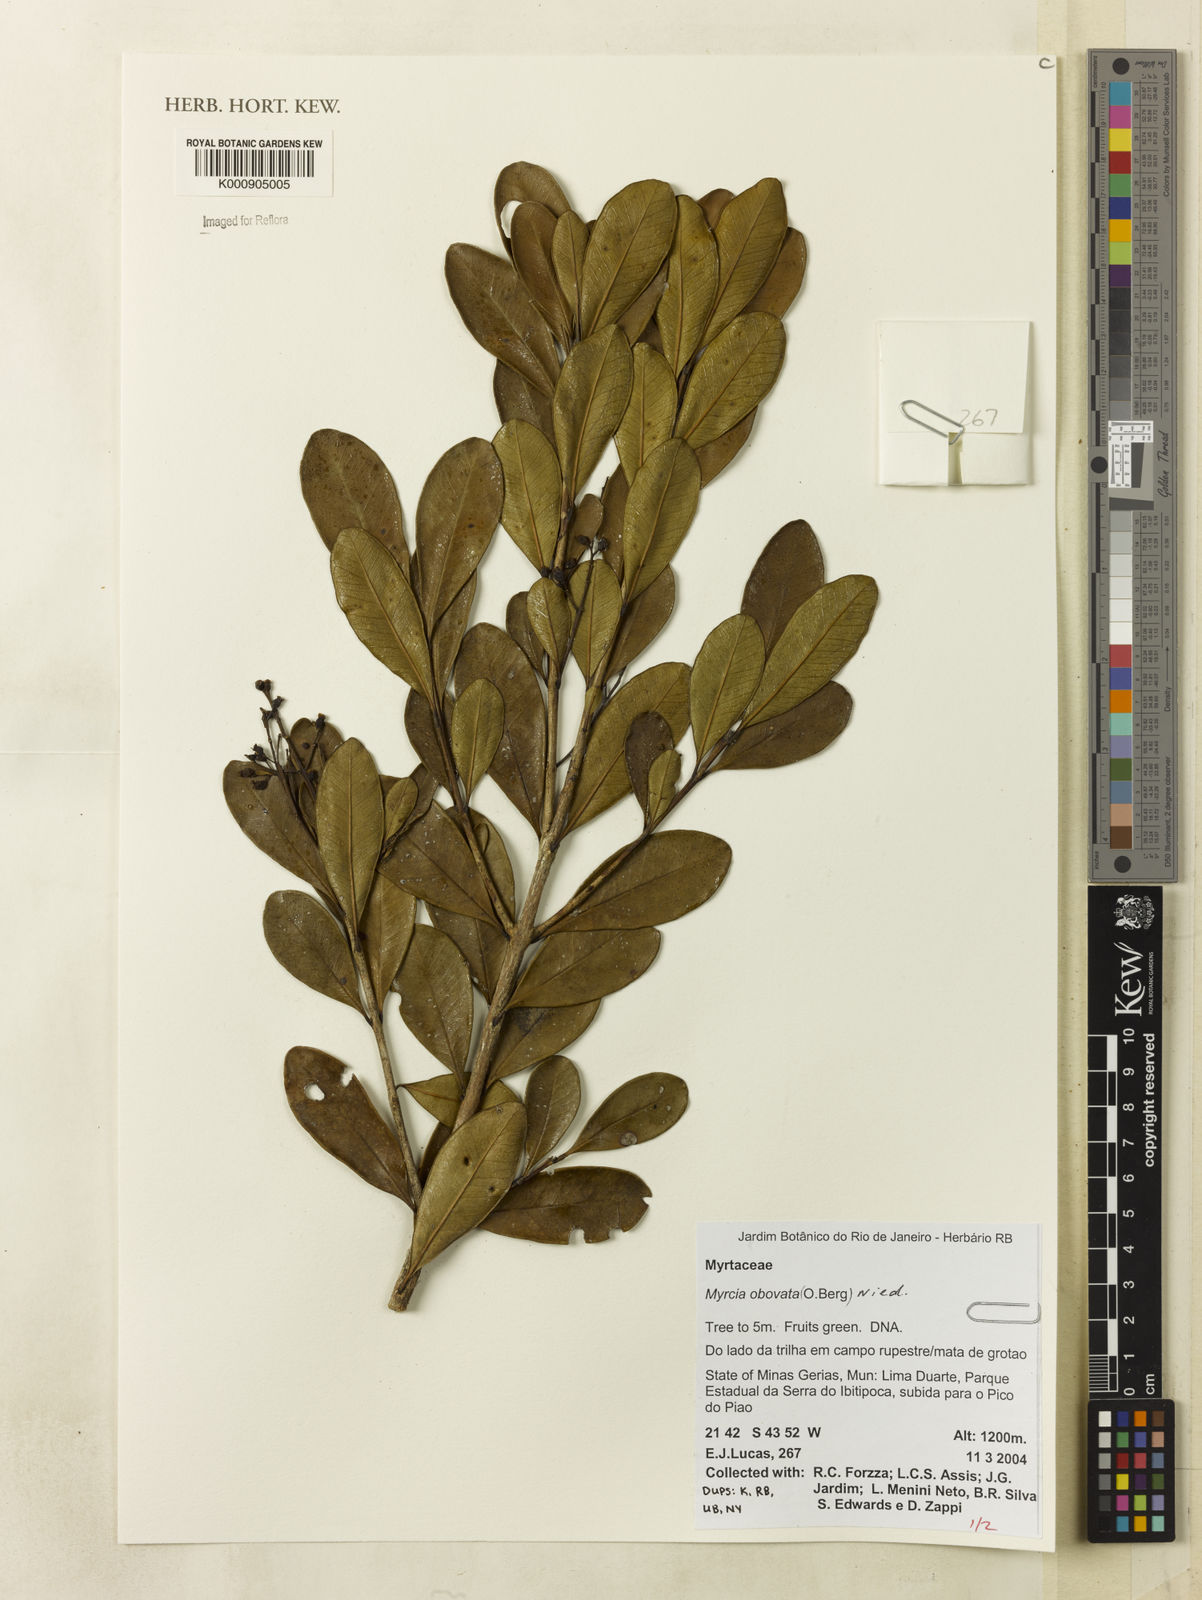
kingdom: Plantae
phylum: Tracheophyta
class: Magnoliopsida
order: Myrtales
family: Myrtaceae
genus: Myrcia
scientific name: Myrcia coelosepala
